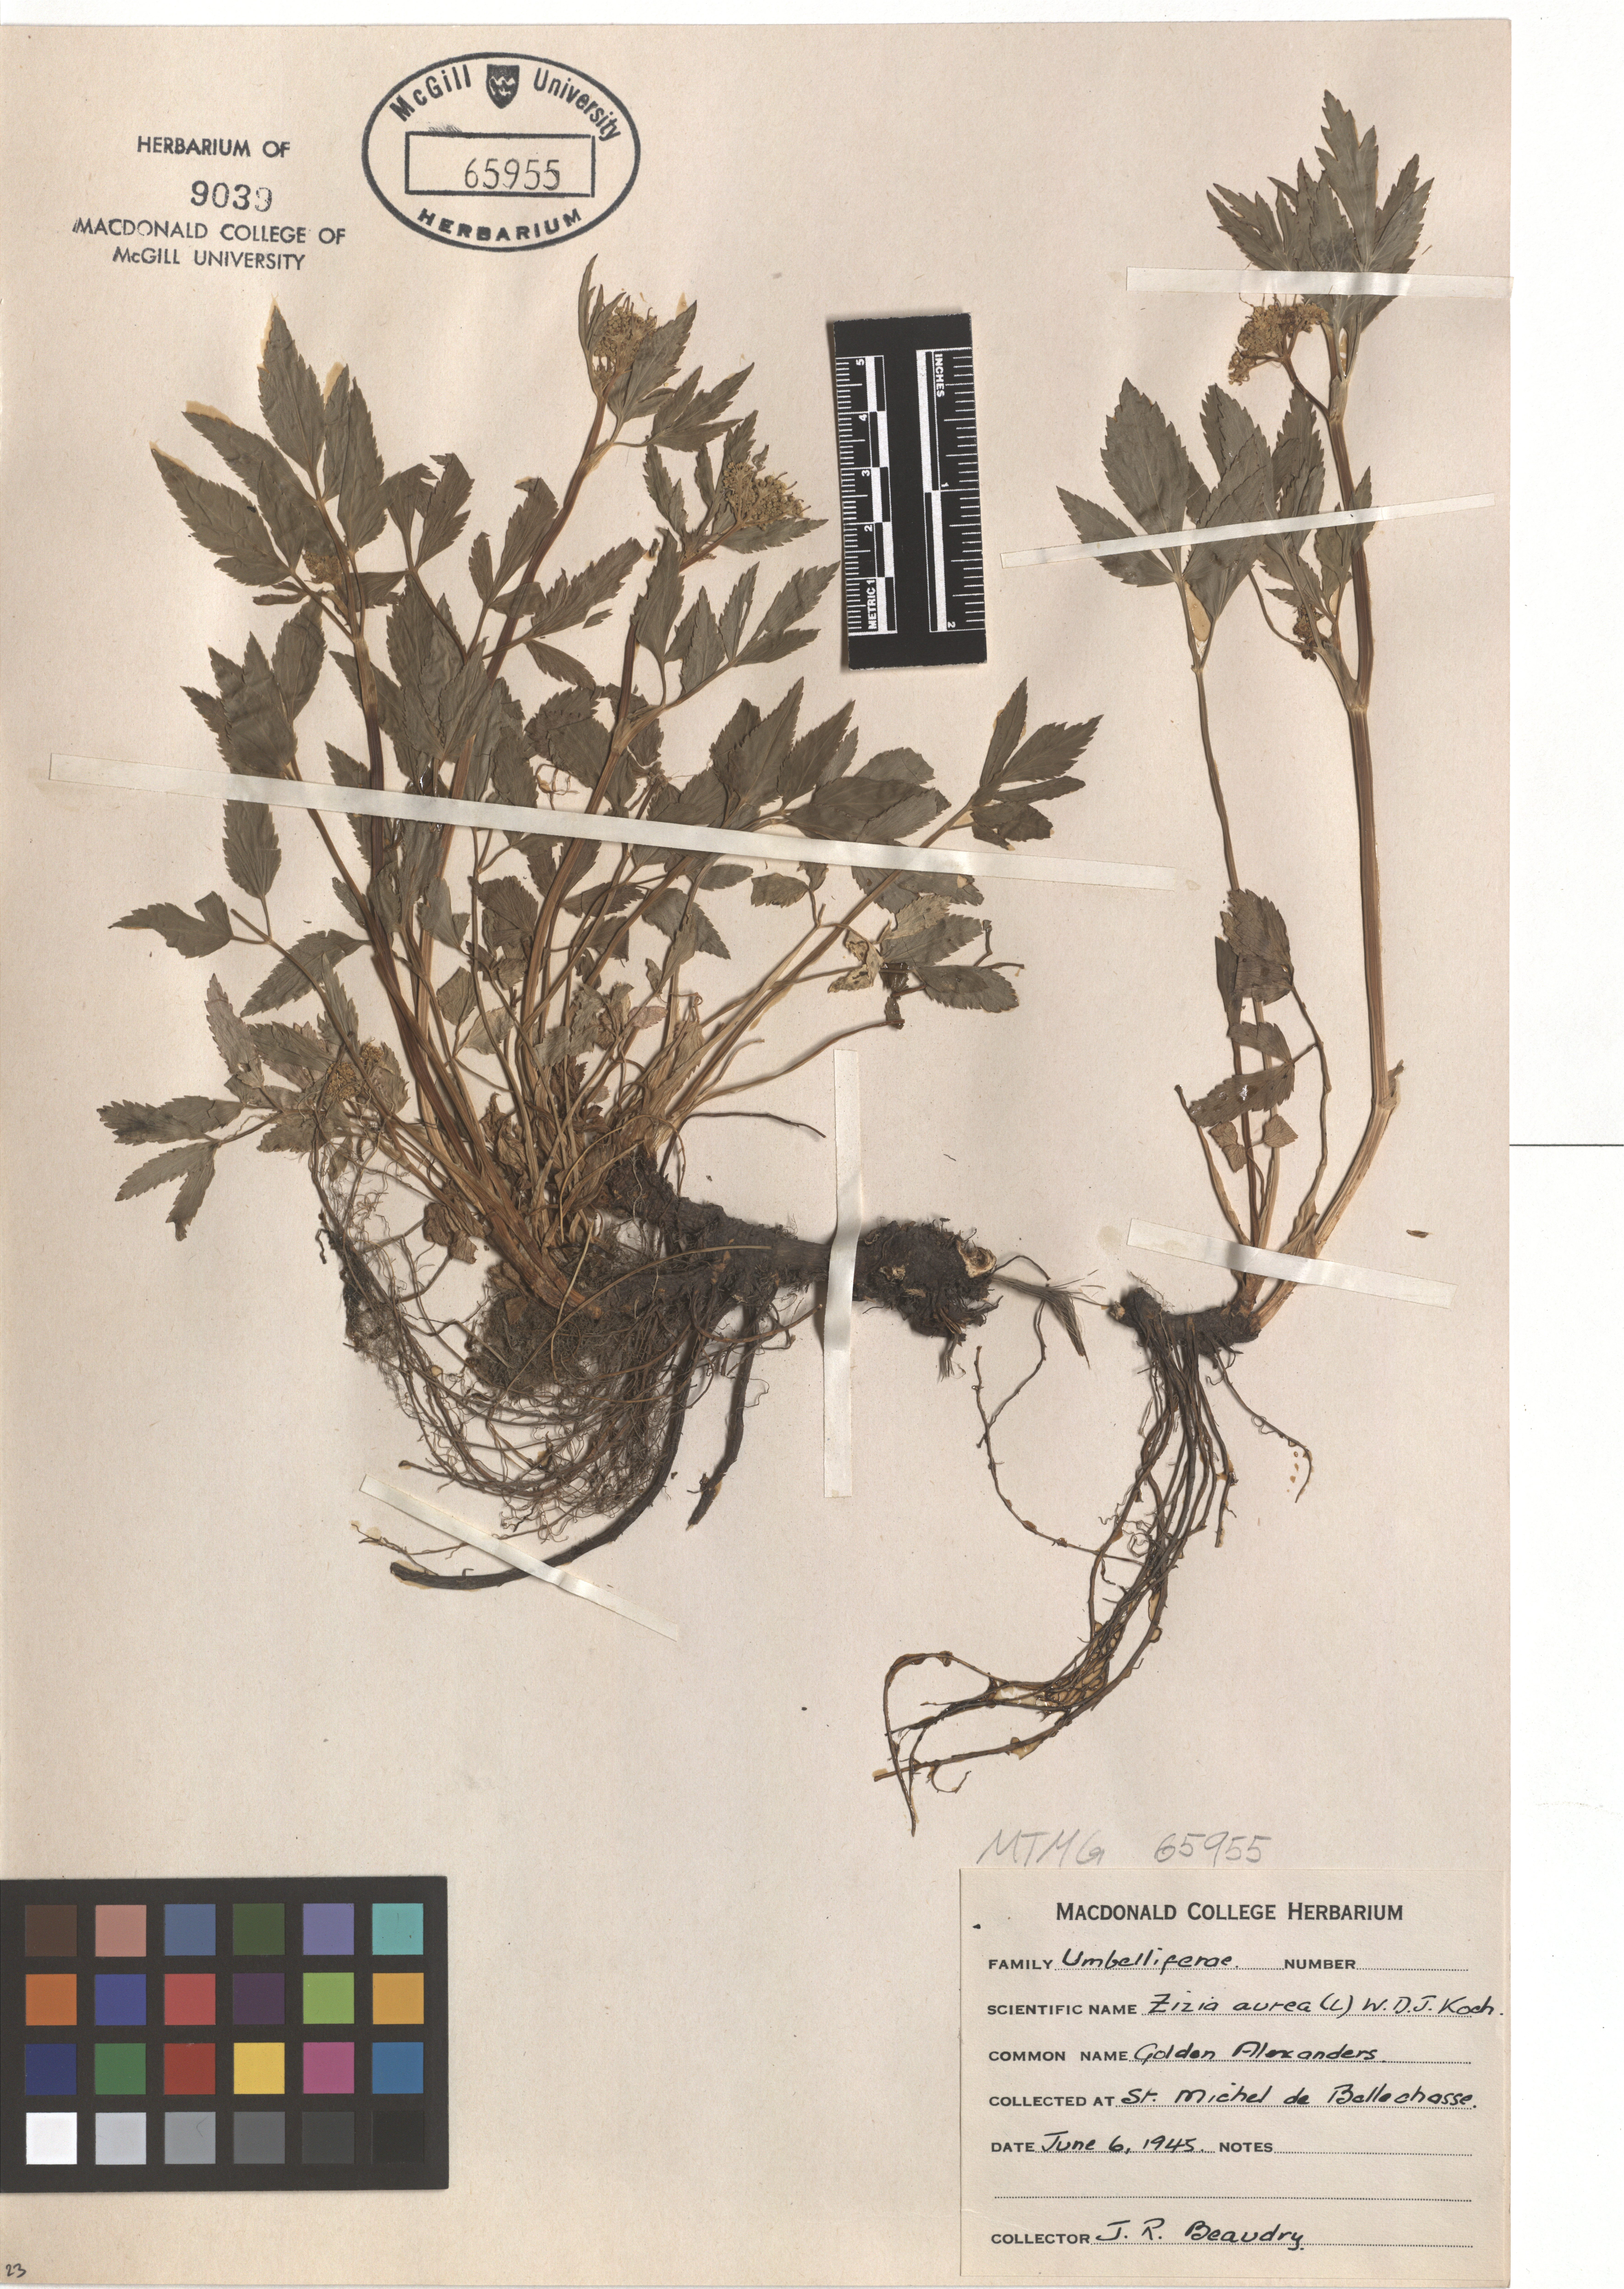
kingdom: Plantae
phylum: Tracheophyta
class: Magnoliopsida
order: Apiales
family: Apiaceae
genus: Zizia
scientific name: Zizia aurea
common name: Golden alexanders
